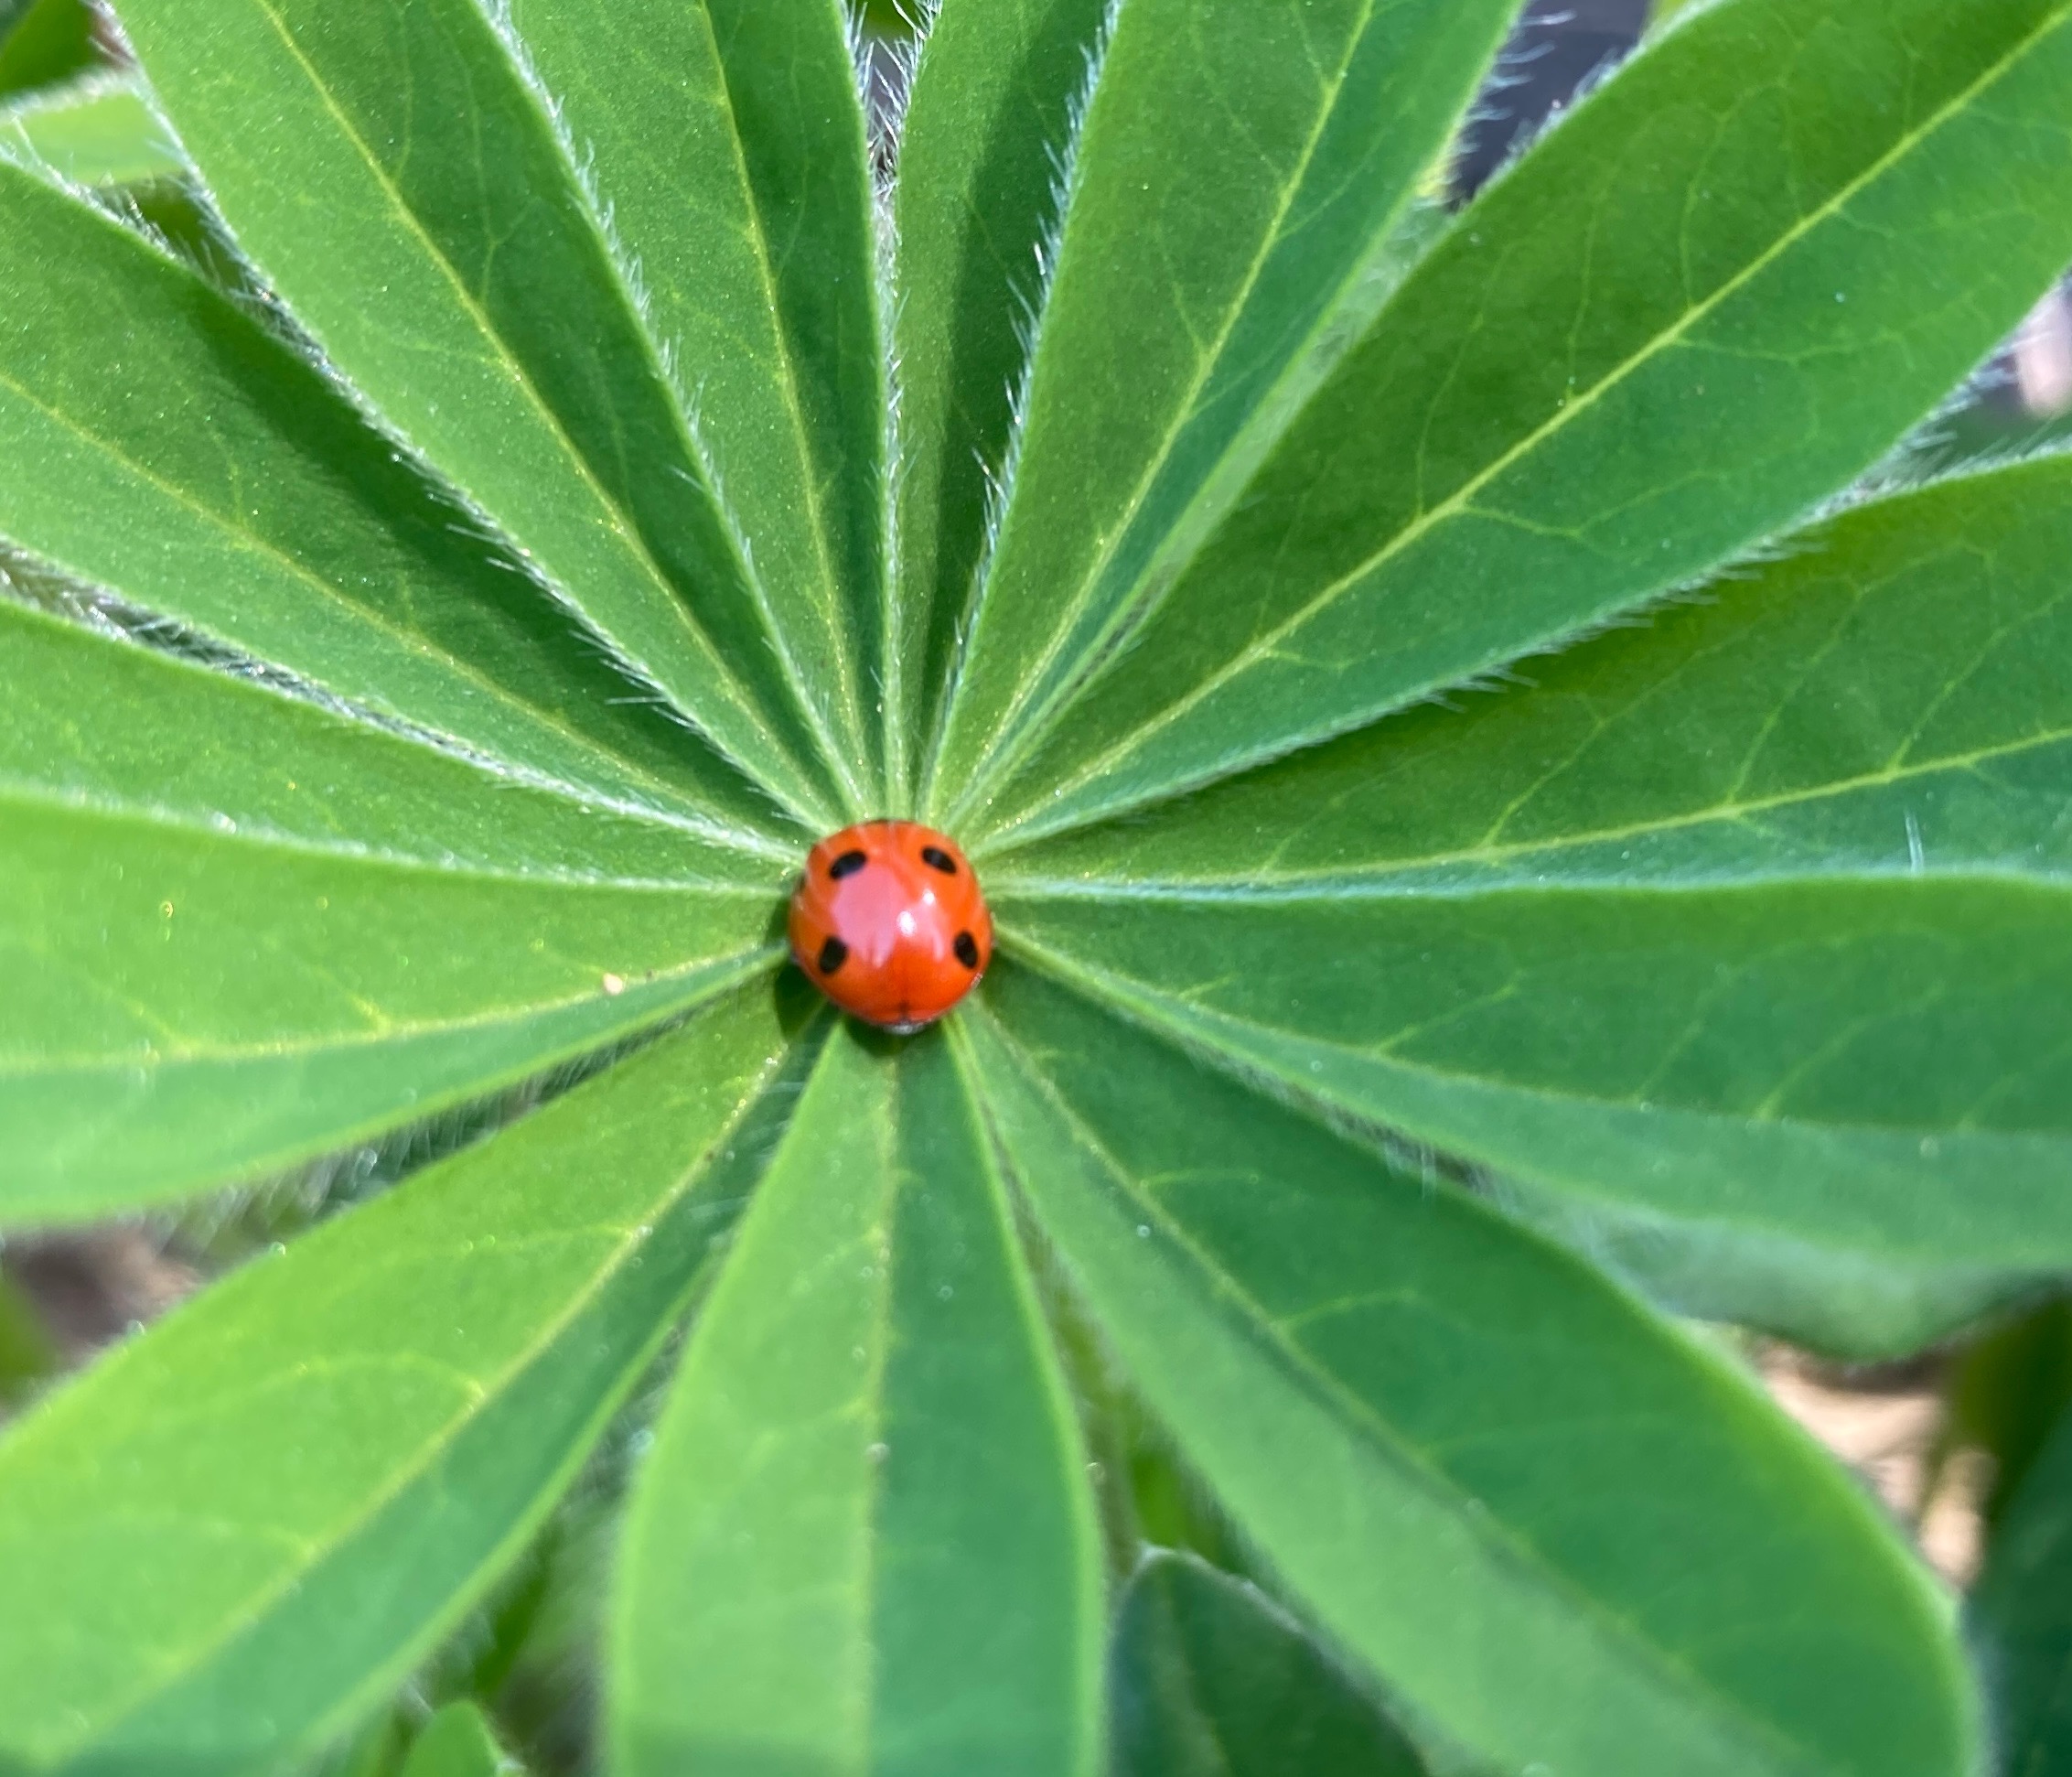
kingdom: Animalia
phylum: Arthropoda
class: Insecta
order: Coleoptera
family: Coccinellidae
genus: Coccinella
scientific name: Coccinella septempunctata
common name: Syvplettet mariehøne
